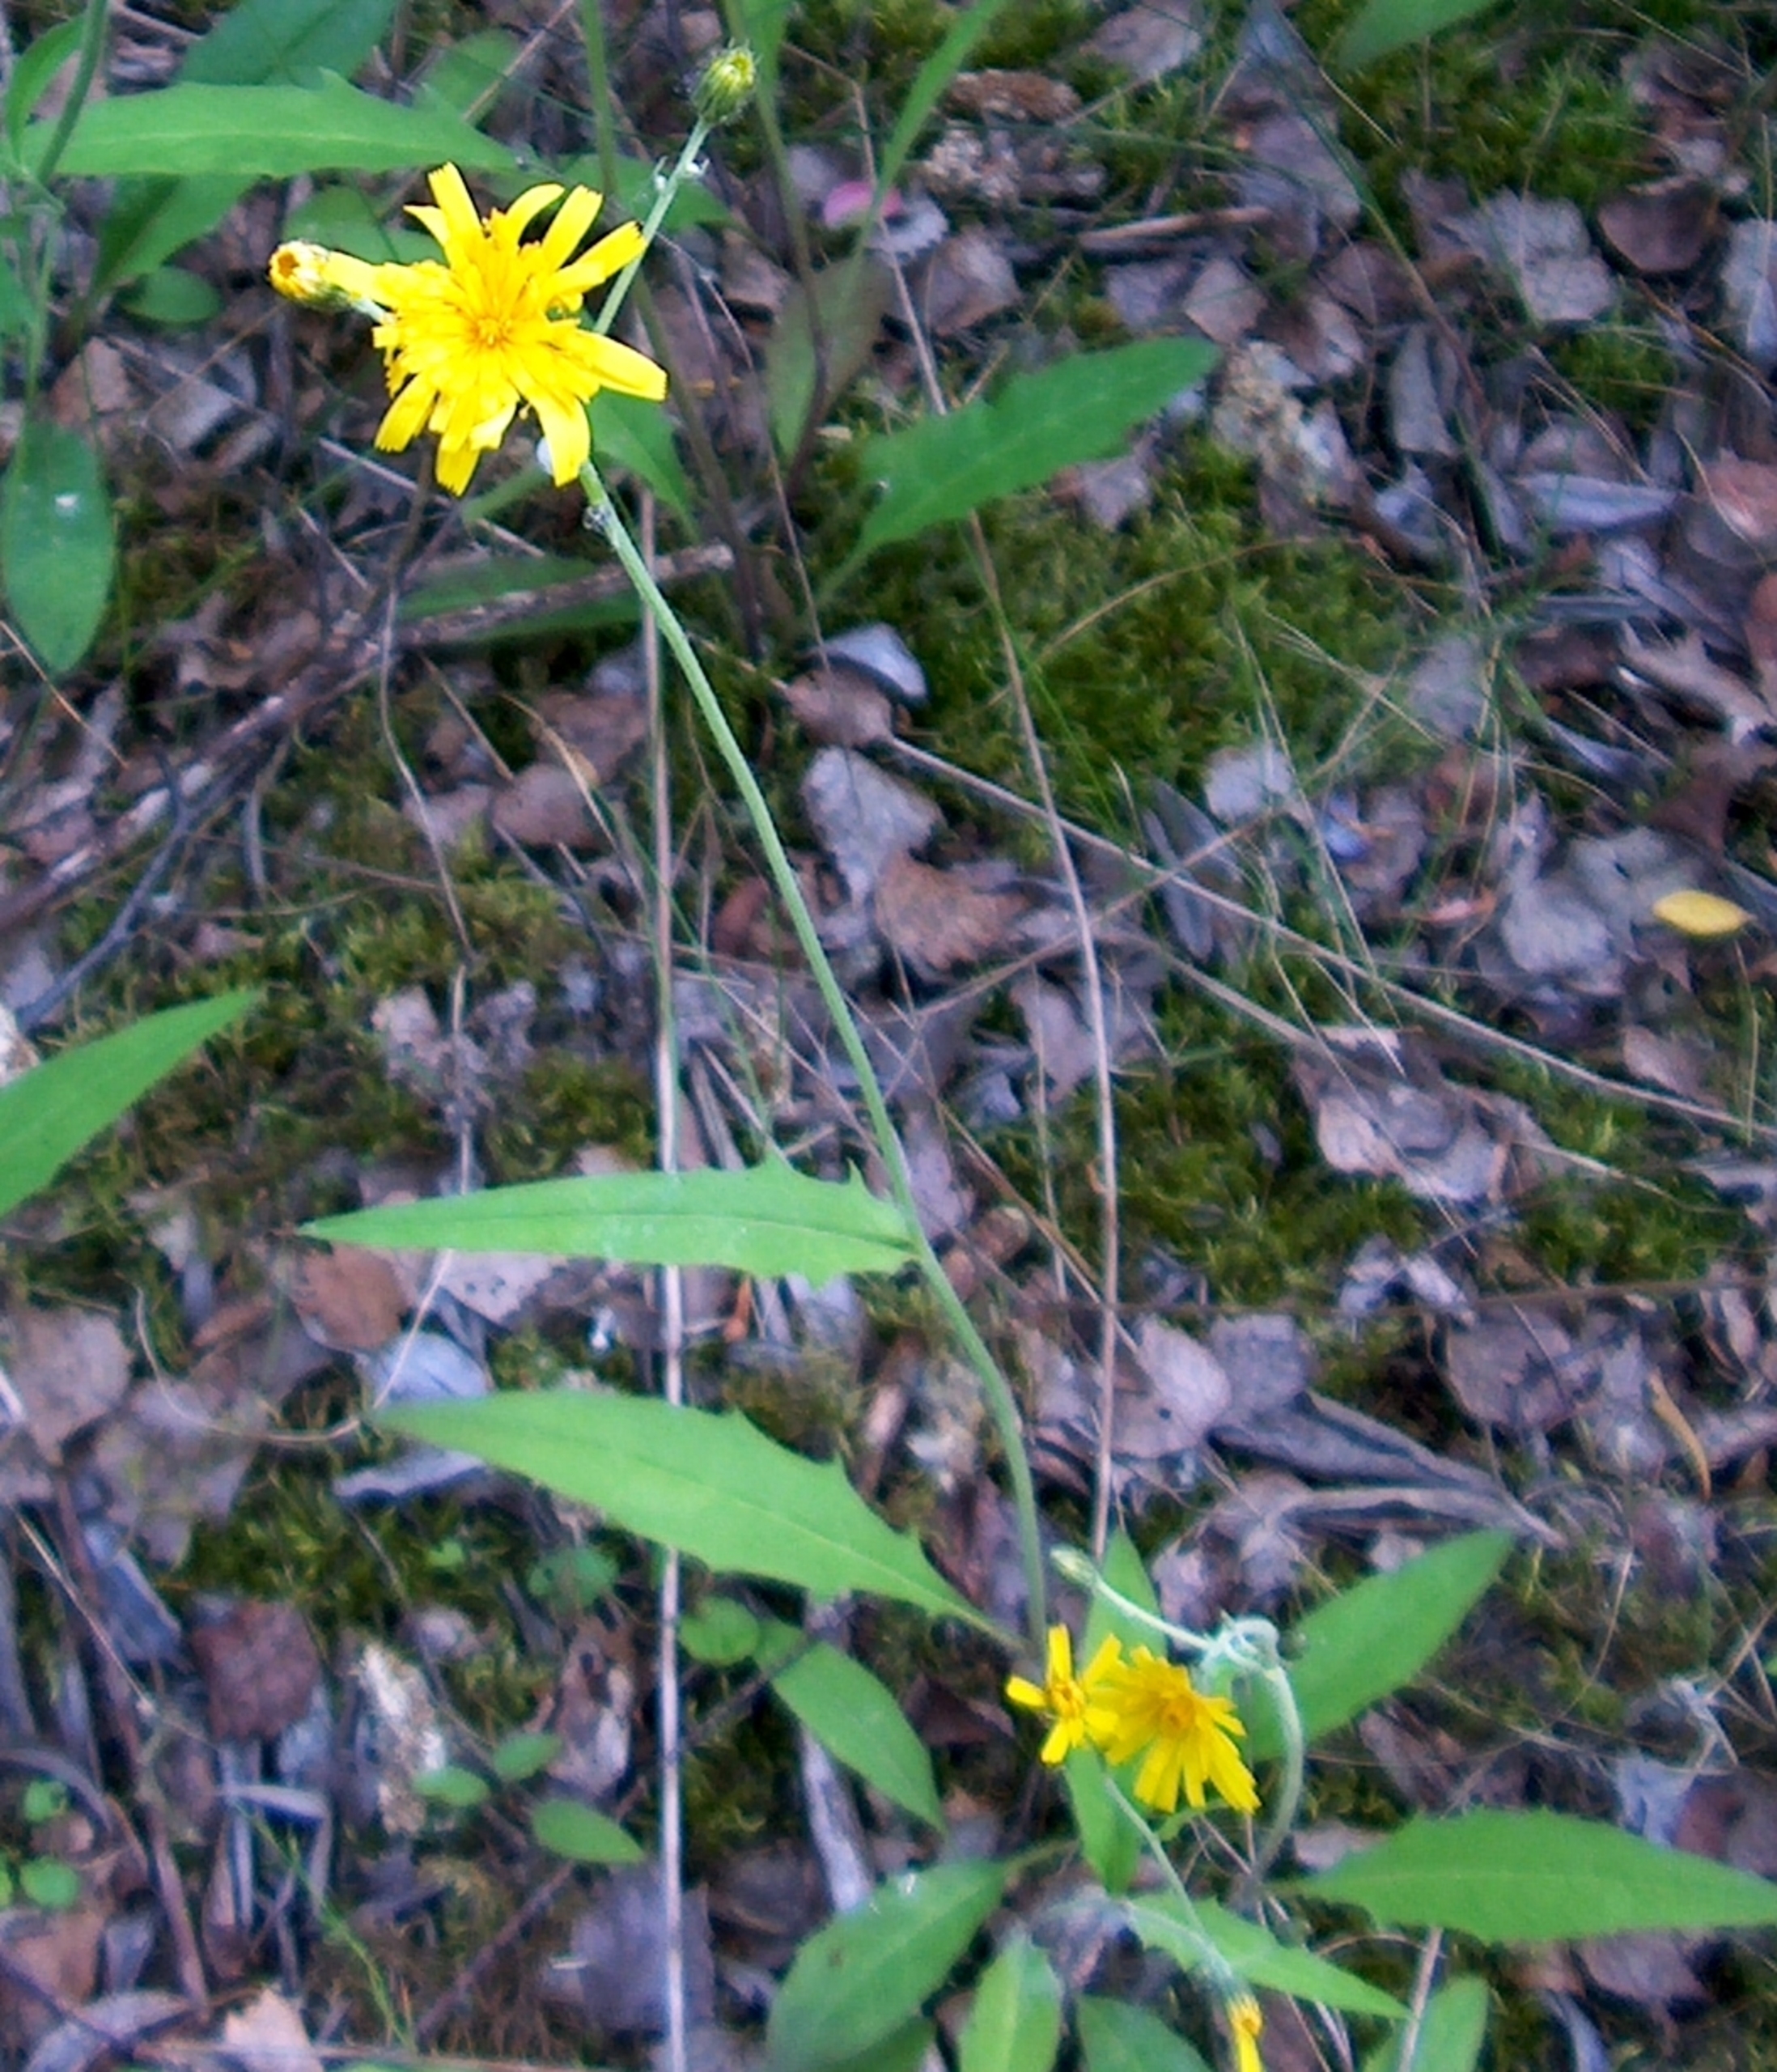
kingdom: Plantae
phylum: Tracheophyta
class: Magnoliopsida
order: Asterales
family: Asteraceae
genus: Hieracium
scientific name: Hieracium levicaule
